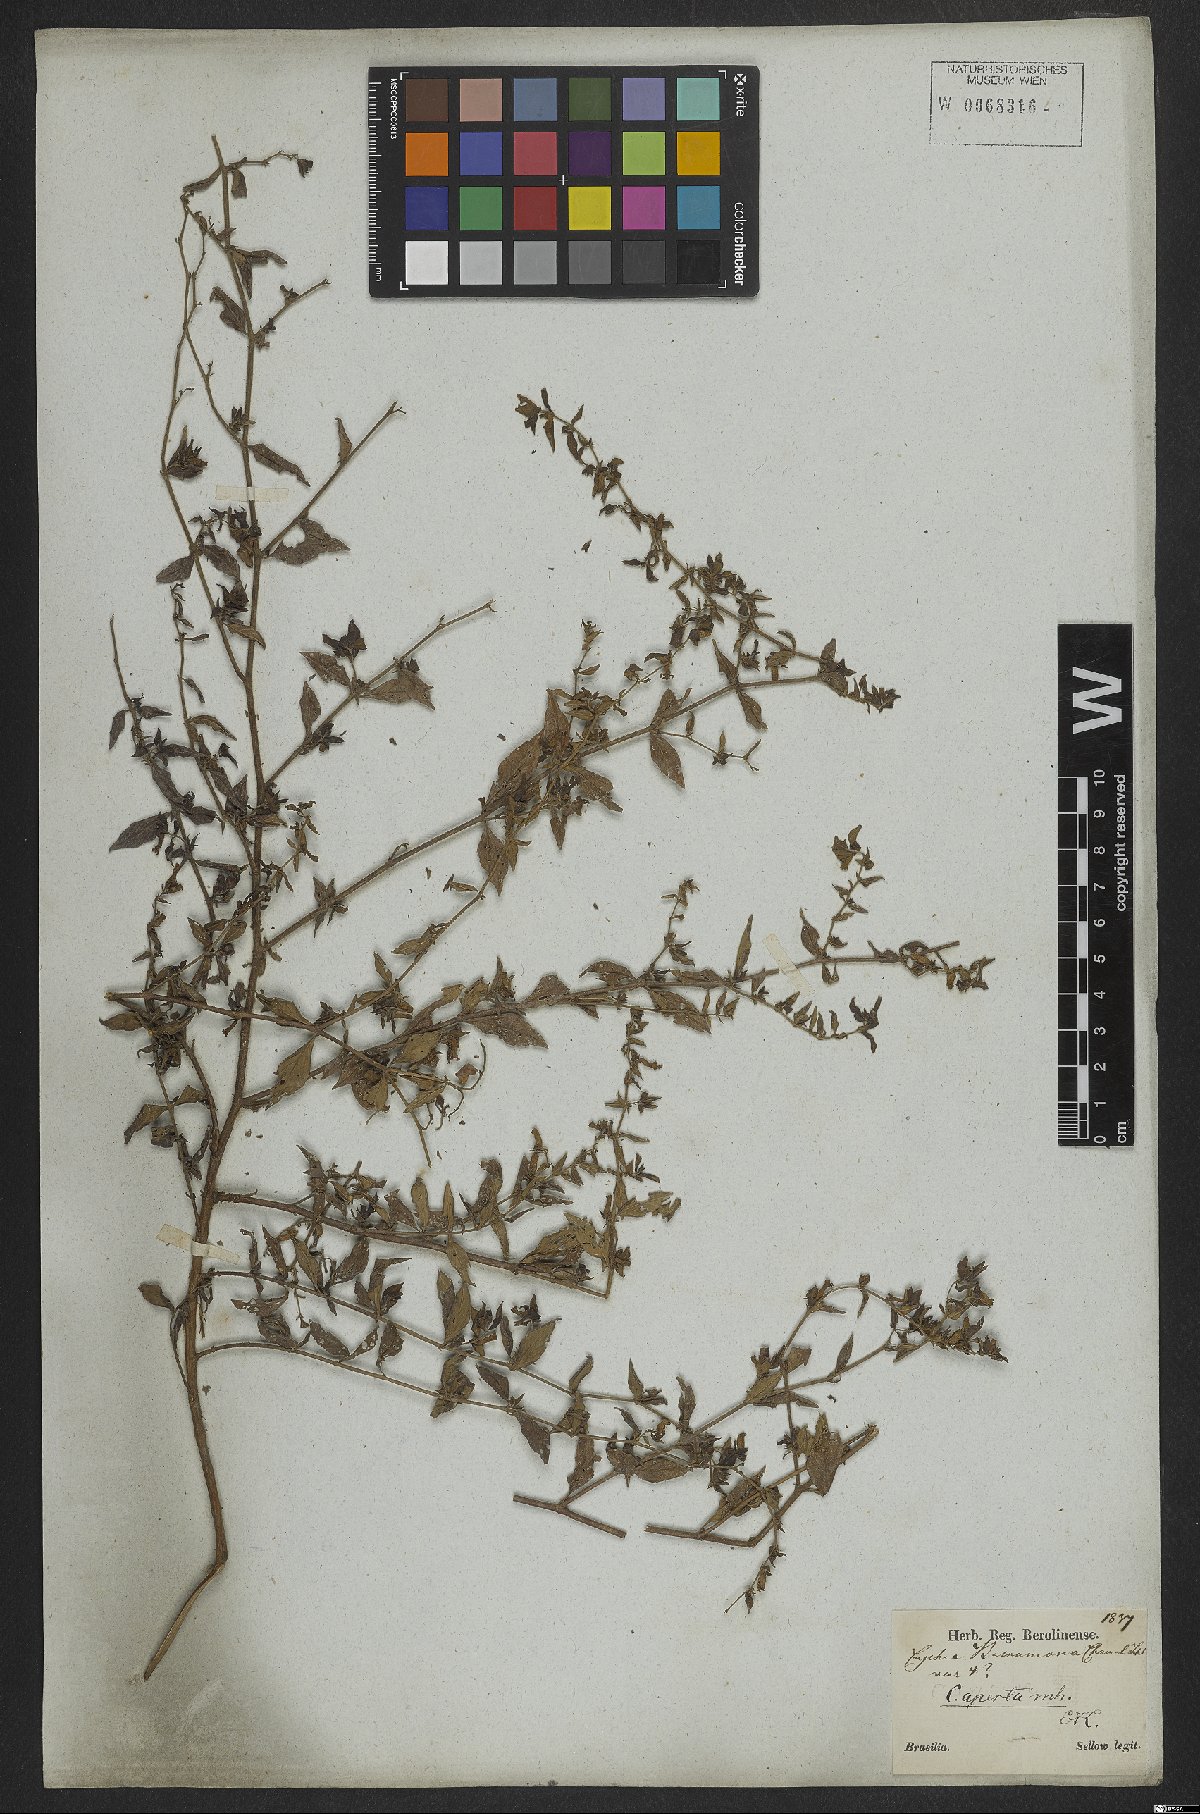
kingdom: Plantae
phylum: Tracheophyta
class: Magnoliopsida
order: Myrtales
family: Lythraceae
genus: Cuphea
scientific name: Cuphea aperta
